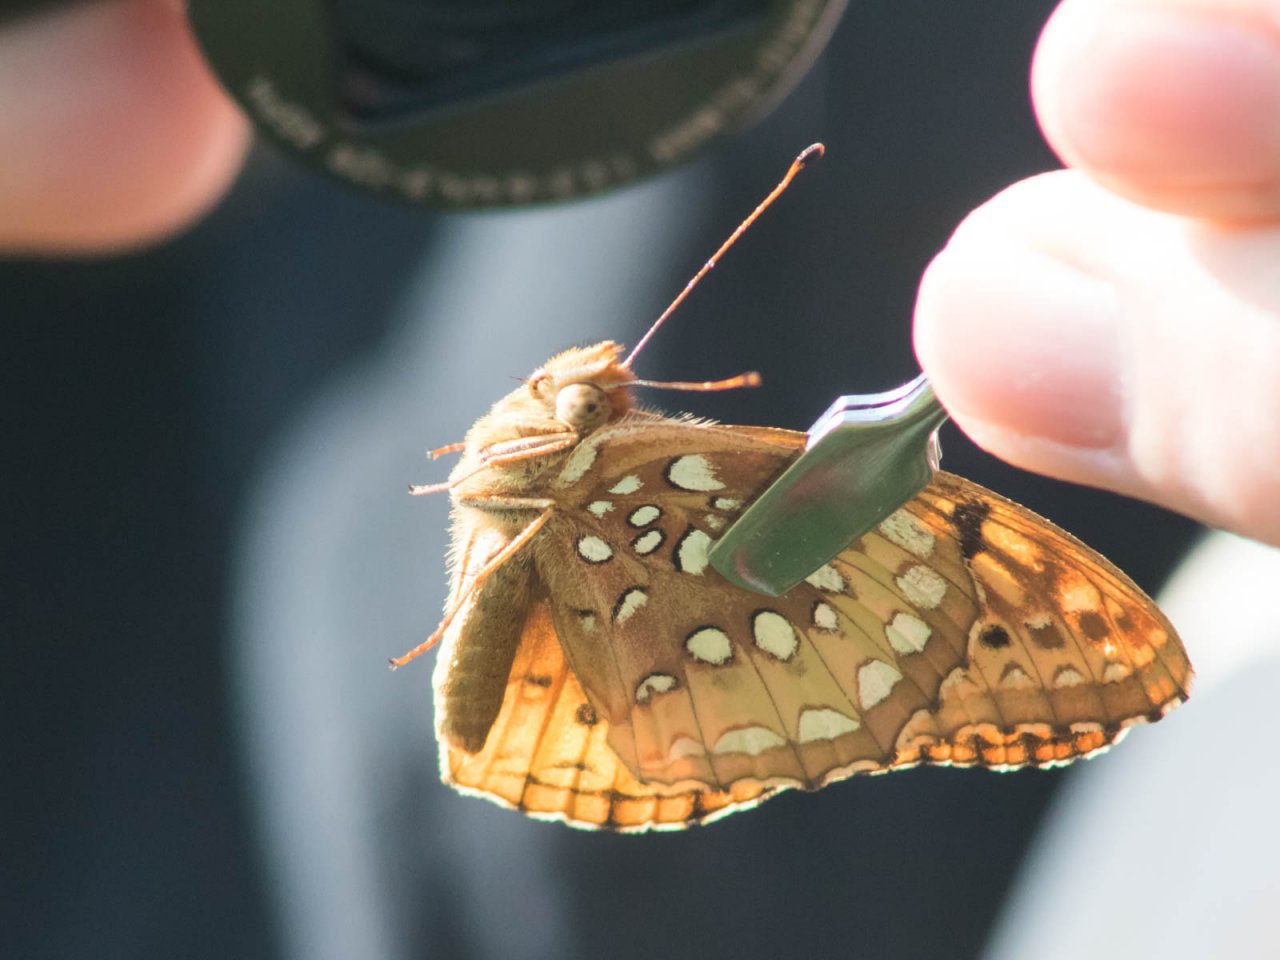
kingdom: Animalia
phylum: Arthropoda
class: Insecta
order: Lepidoptera
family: Nymphalidae
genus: Speyeria
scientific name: Speyeria cybele
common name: Great Spangled Fritillary
